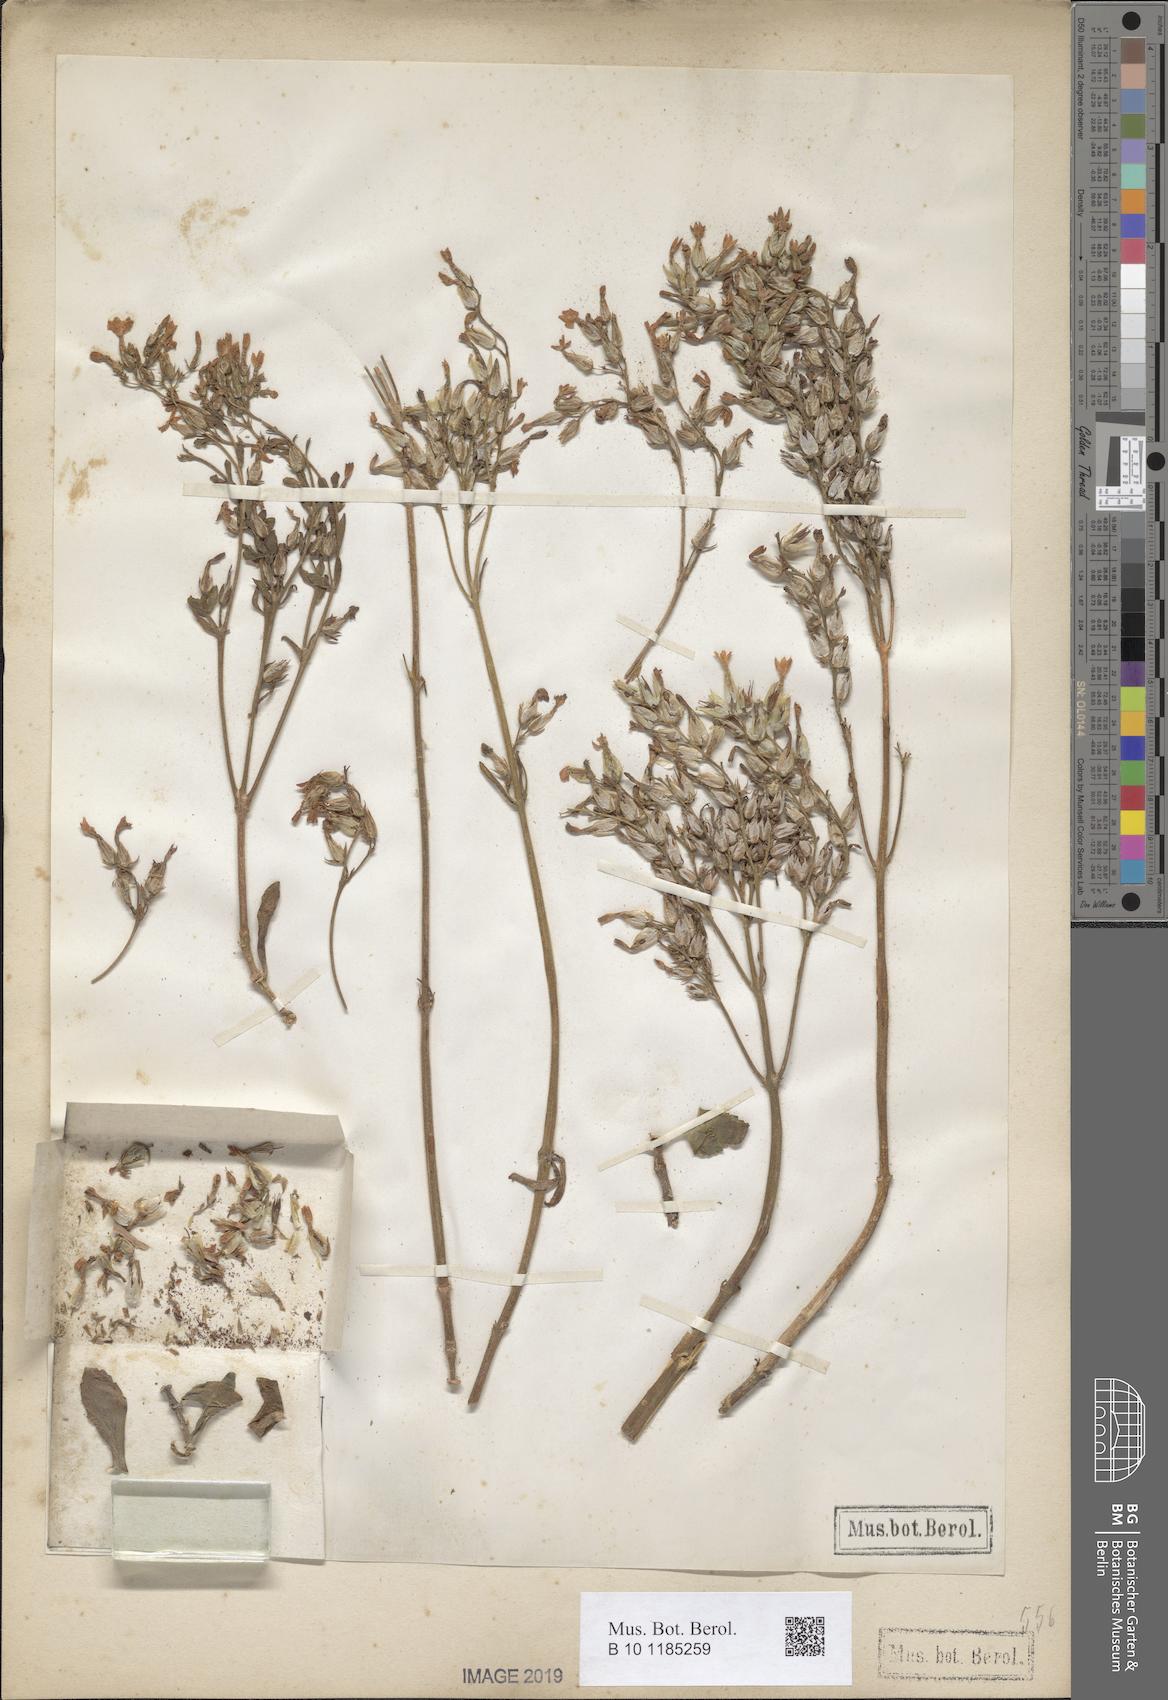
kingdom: Plantae
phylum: Tracheophyta
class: Magnoliopsida
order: Saxifragales
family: Crassulaceae
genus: Kalanchoe
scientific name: Kalanchoe
